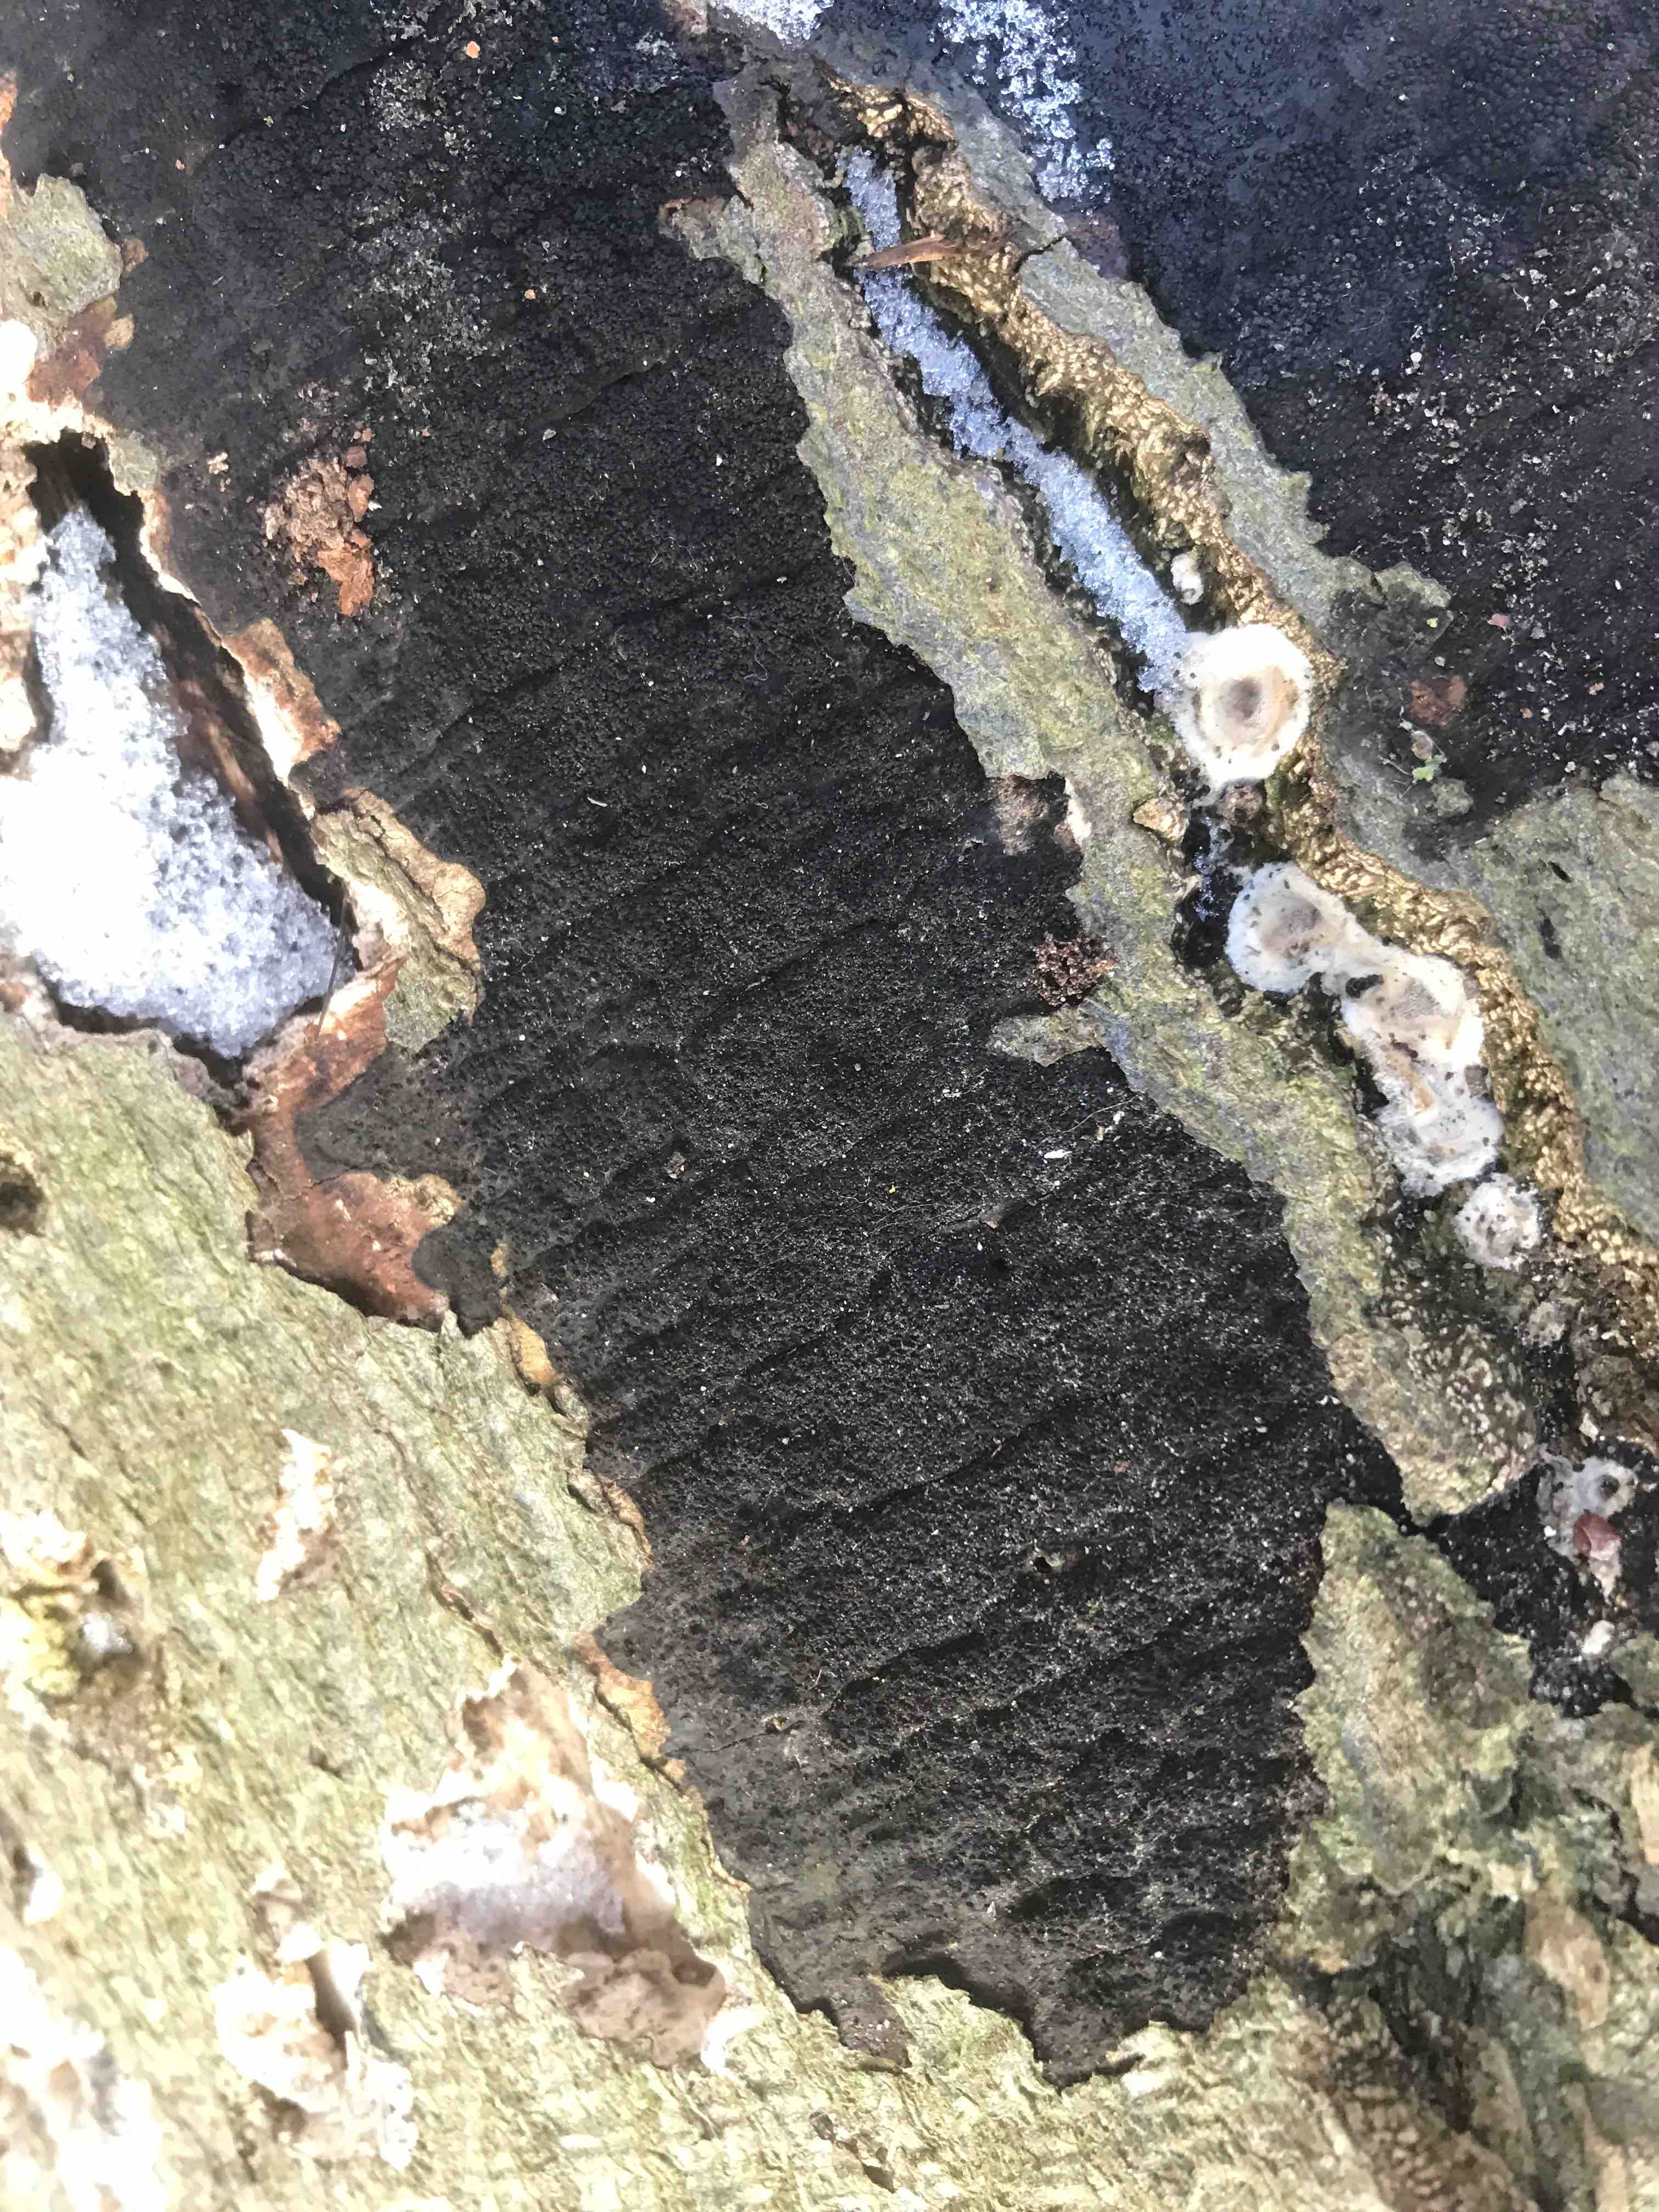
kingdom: Fungi
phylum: Ascomycota
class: Sordariomycetes
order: Xylariales
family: Diatrypaceae
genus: Eutypa
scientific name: Eutypa spinosa
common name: grov kulskorpe
